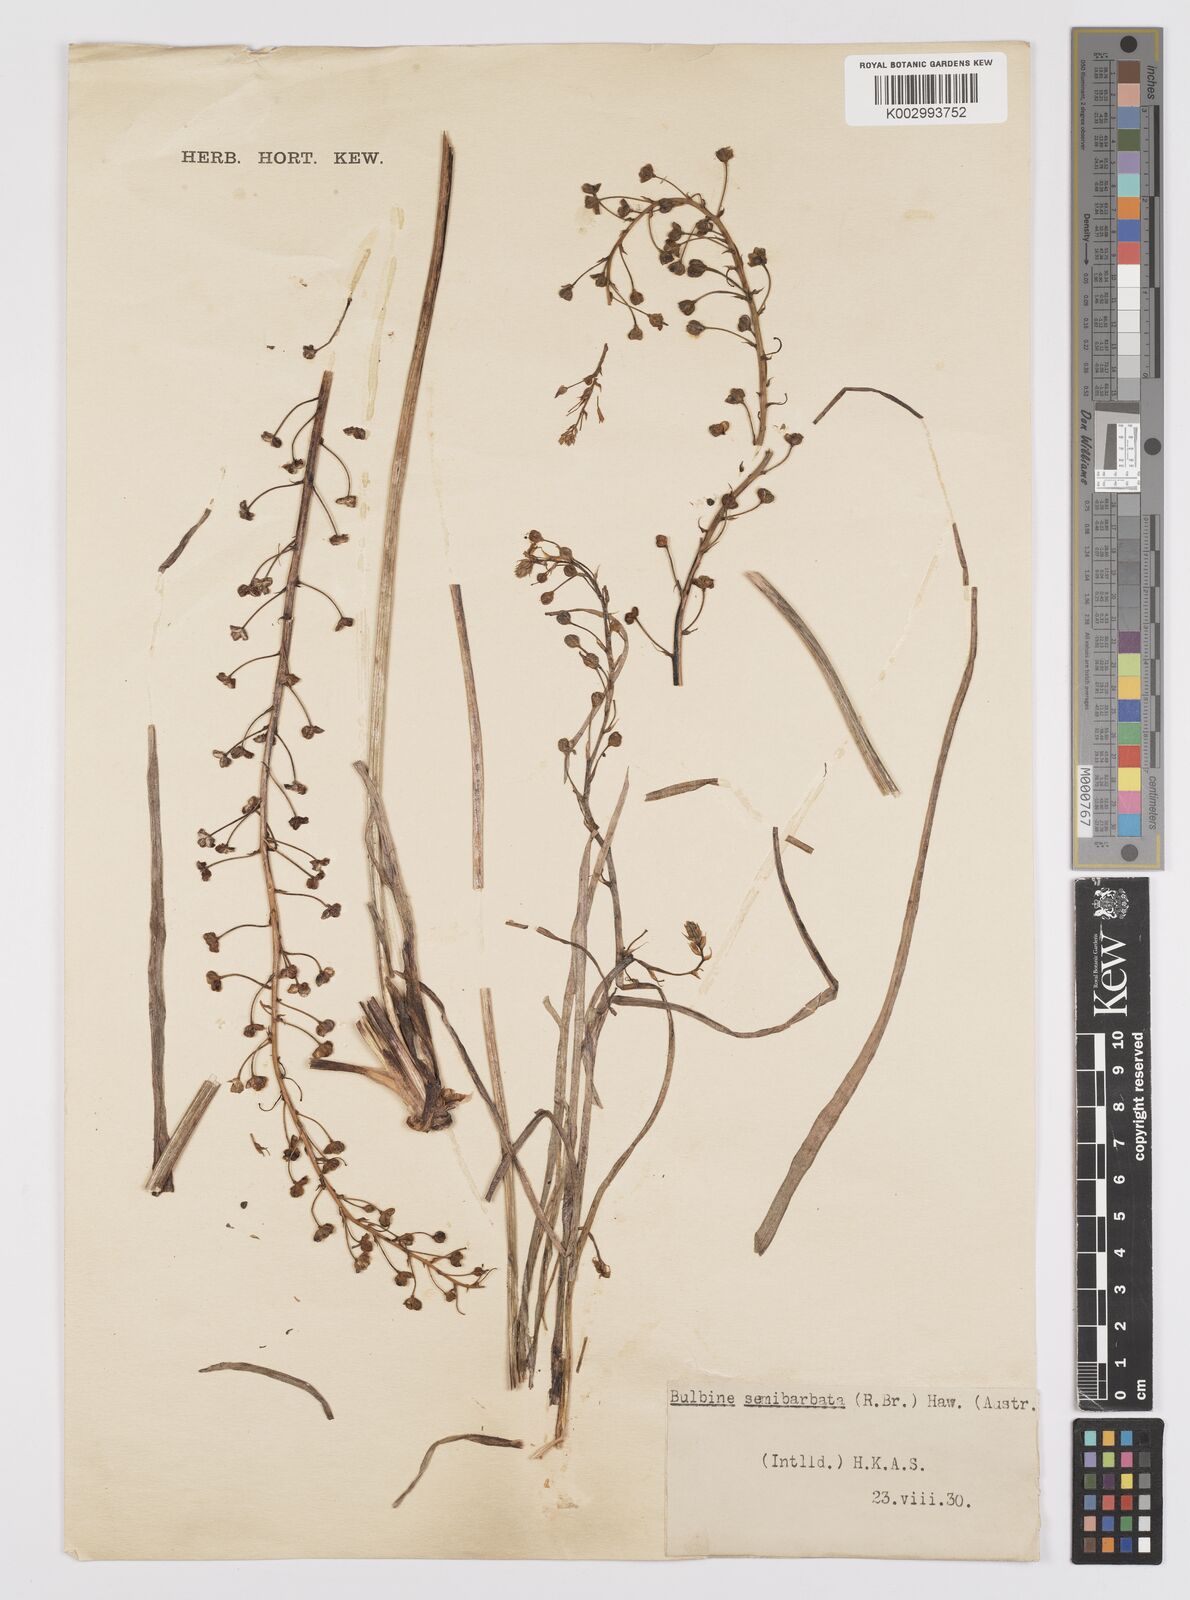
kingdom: Plantae
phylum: Tracheophyta
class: Liliopsida
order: Asparagales
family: Asphodelaceae
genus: Bulbine
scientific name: Bulbine semibarbata
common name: Leek lily
